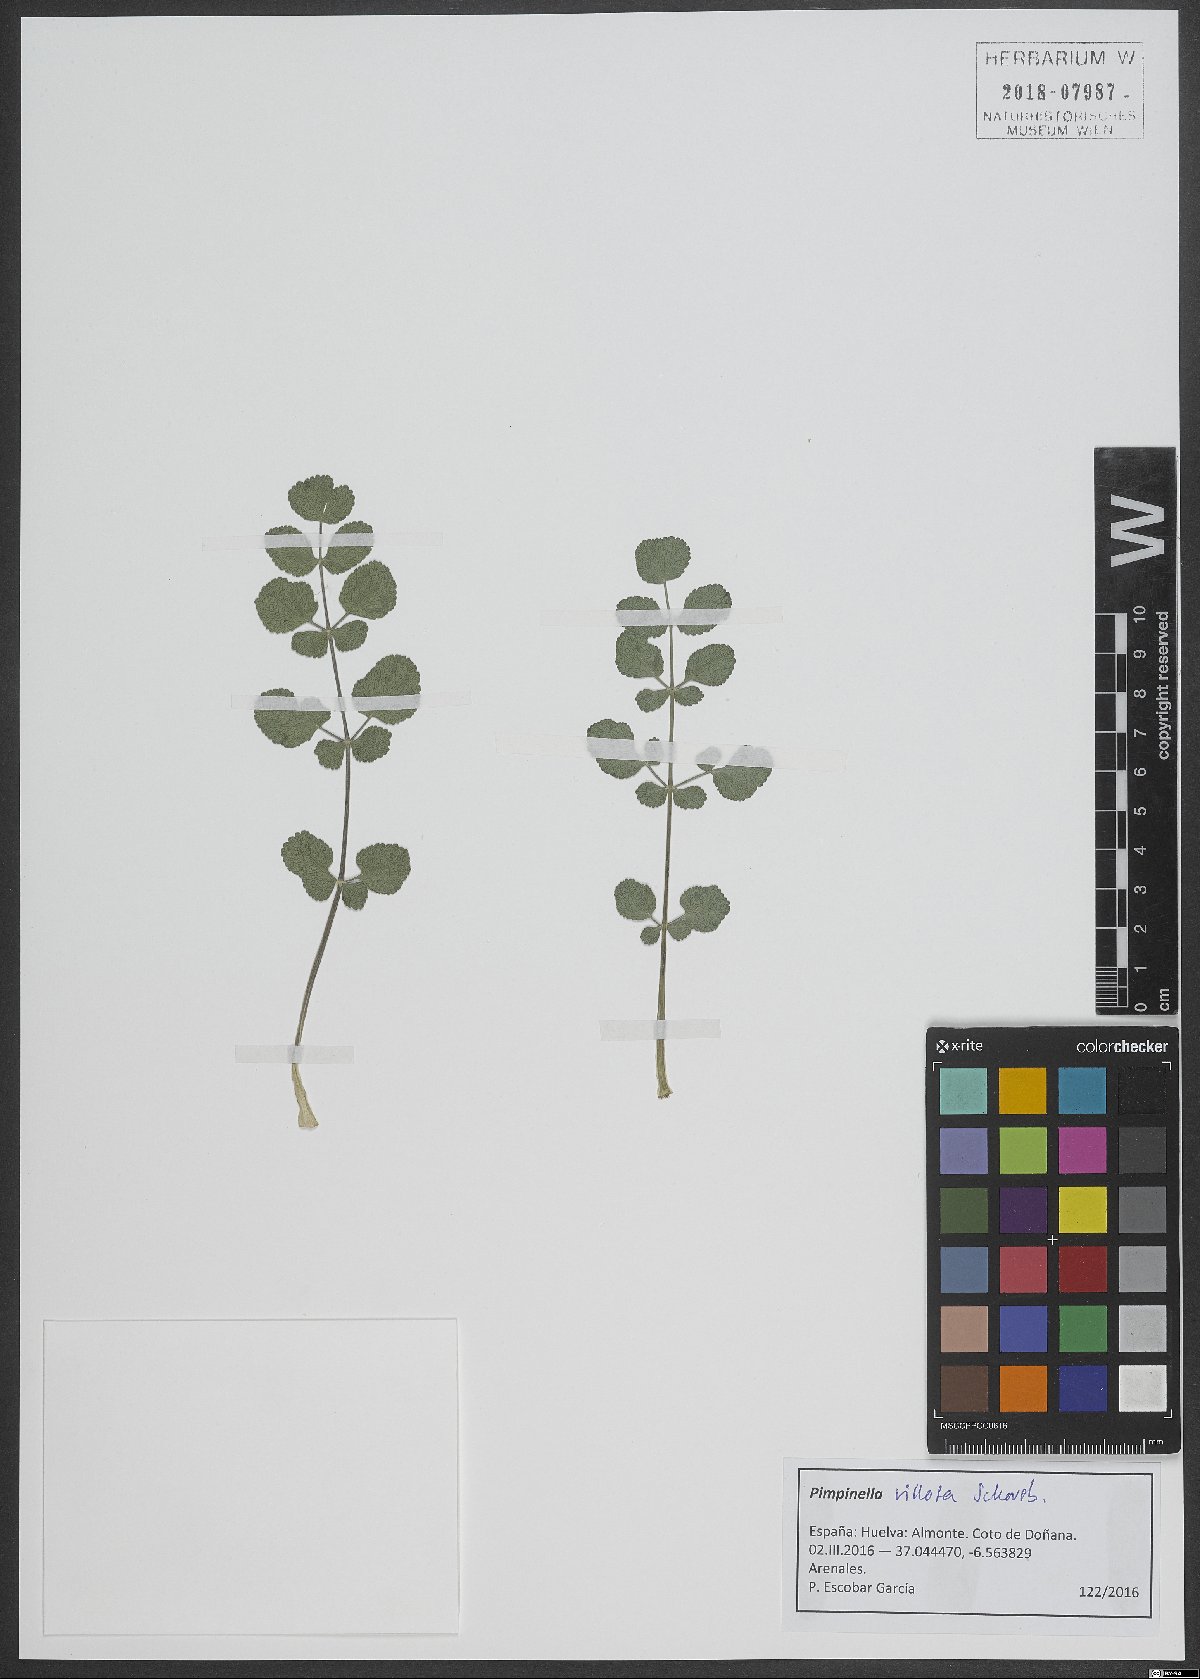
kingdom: Plantae
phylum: Tracheophyta
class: Magnoliopsida
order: Apiales
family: Apiaceae
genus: Pimpinella
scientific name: Pimpinella villosa
